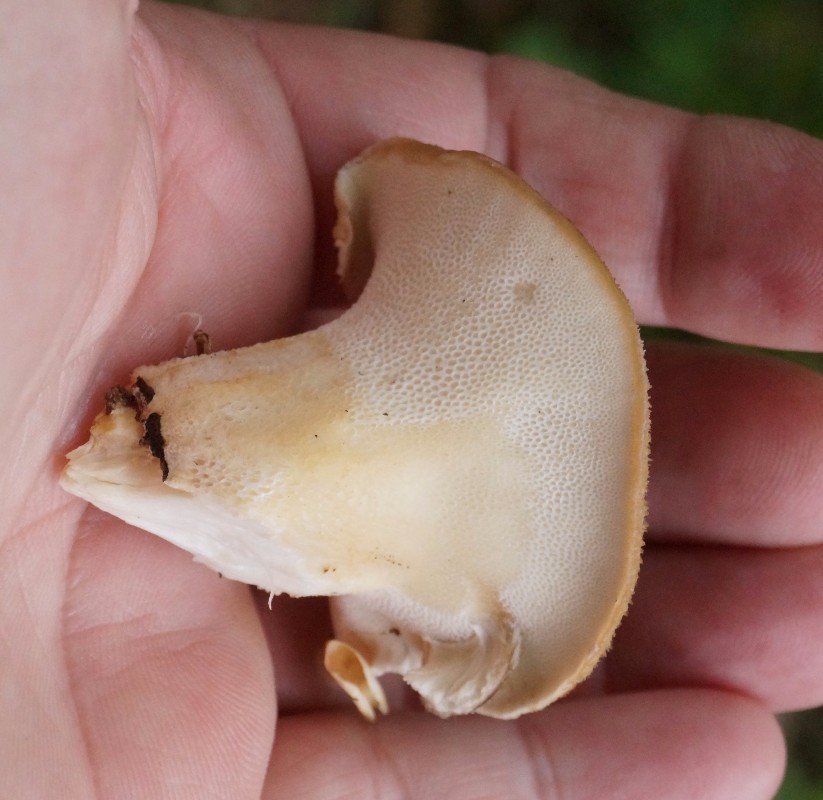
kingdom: Fungi
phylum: Basidiomycota
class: Agaricomycetes
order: Polyporales
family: Polyporaceae
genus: Polyporus
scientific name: Polyporus tuberaster
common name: knoldet stilkporesvamp
